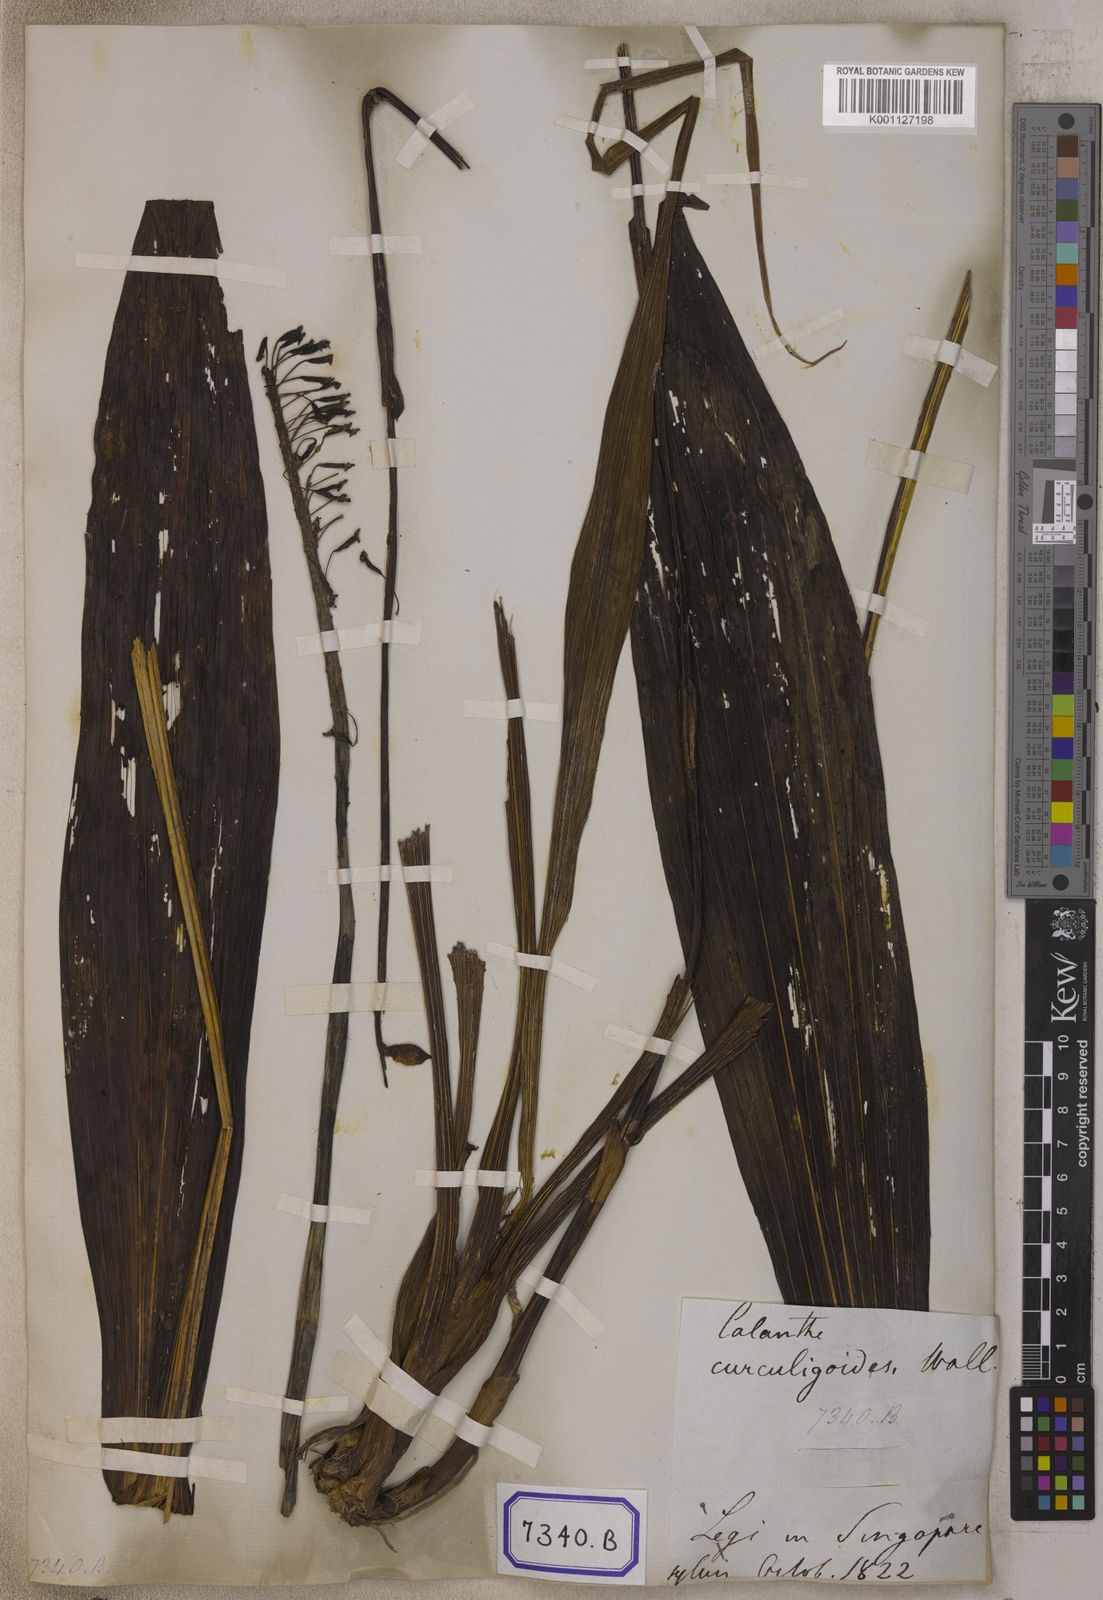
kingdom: Plantae
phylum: Tracheophyta
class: Liliopsida
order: Asparagales
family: Orchidaceae
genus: Calanthe
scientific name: Calanthe pulchra
